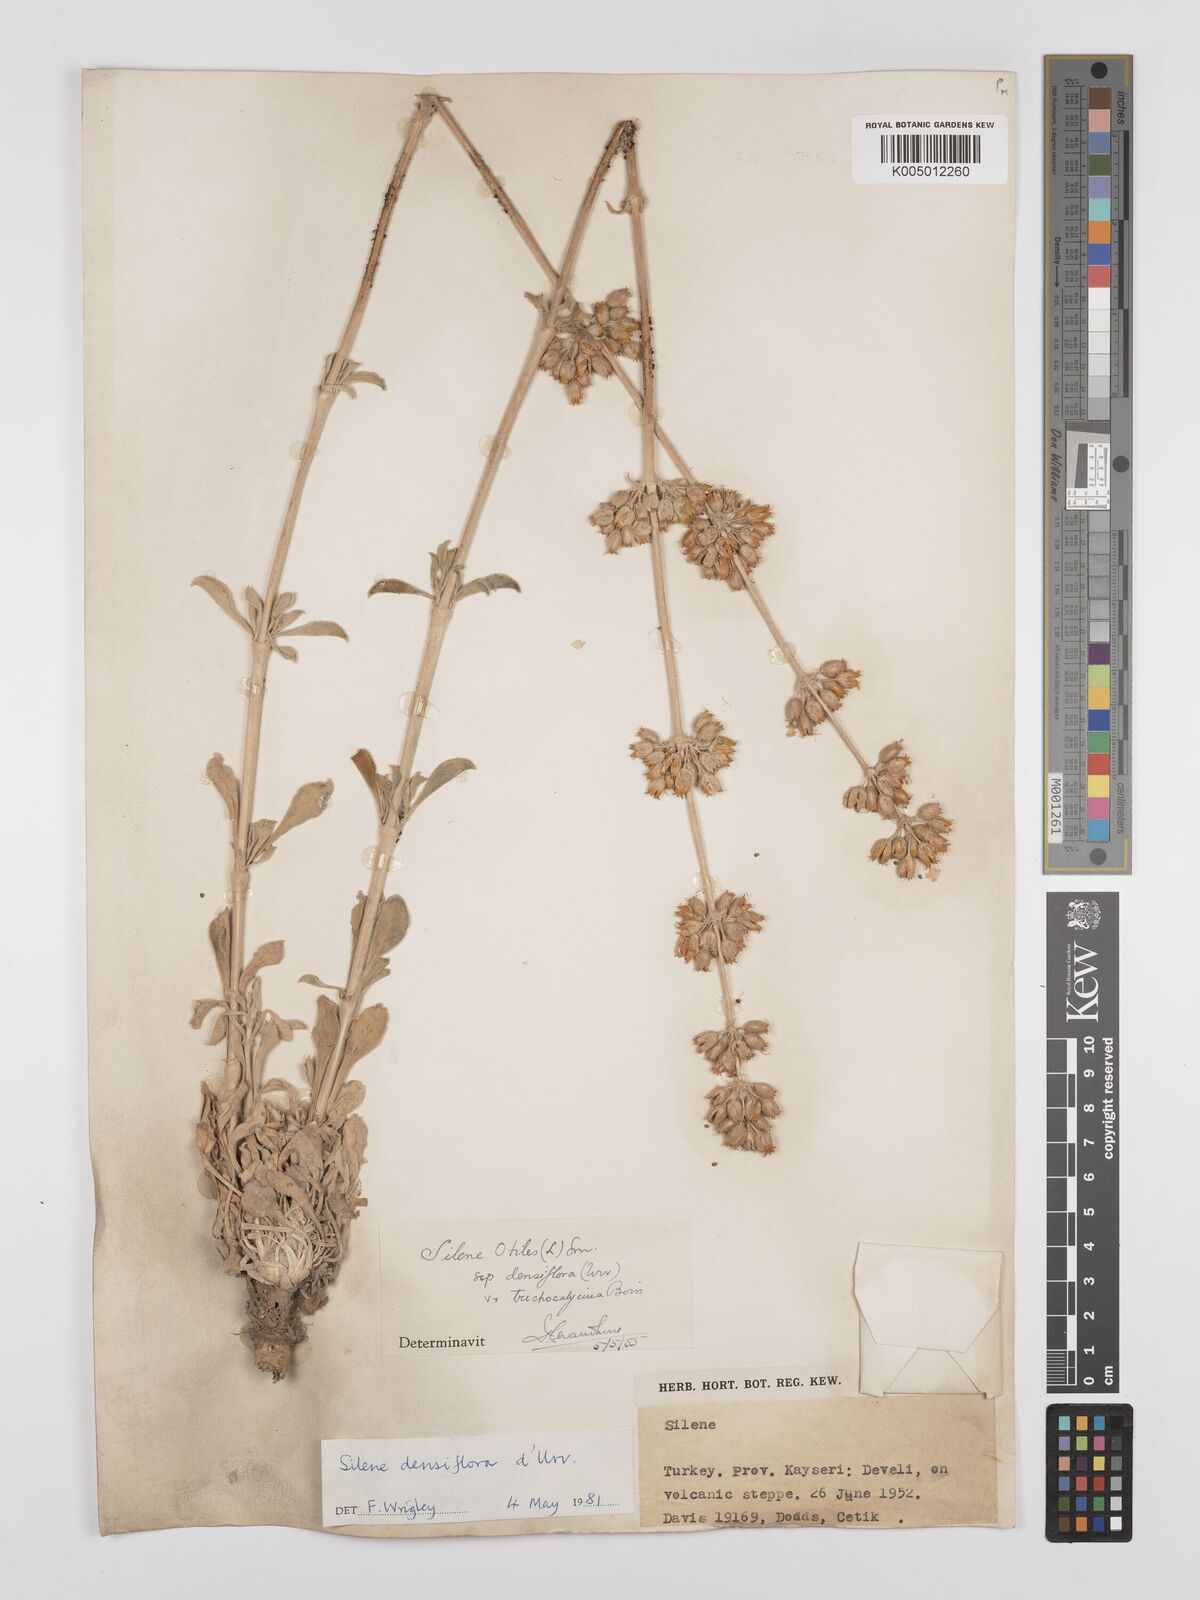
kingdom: Plantae
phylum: Tracheophyta
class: Magnoliopsida
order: Caryophyllales
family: Caryophyllaceae
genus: Silene
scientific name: Silene densiflora
